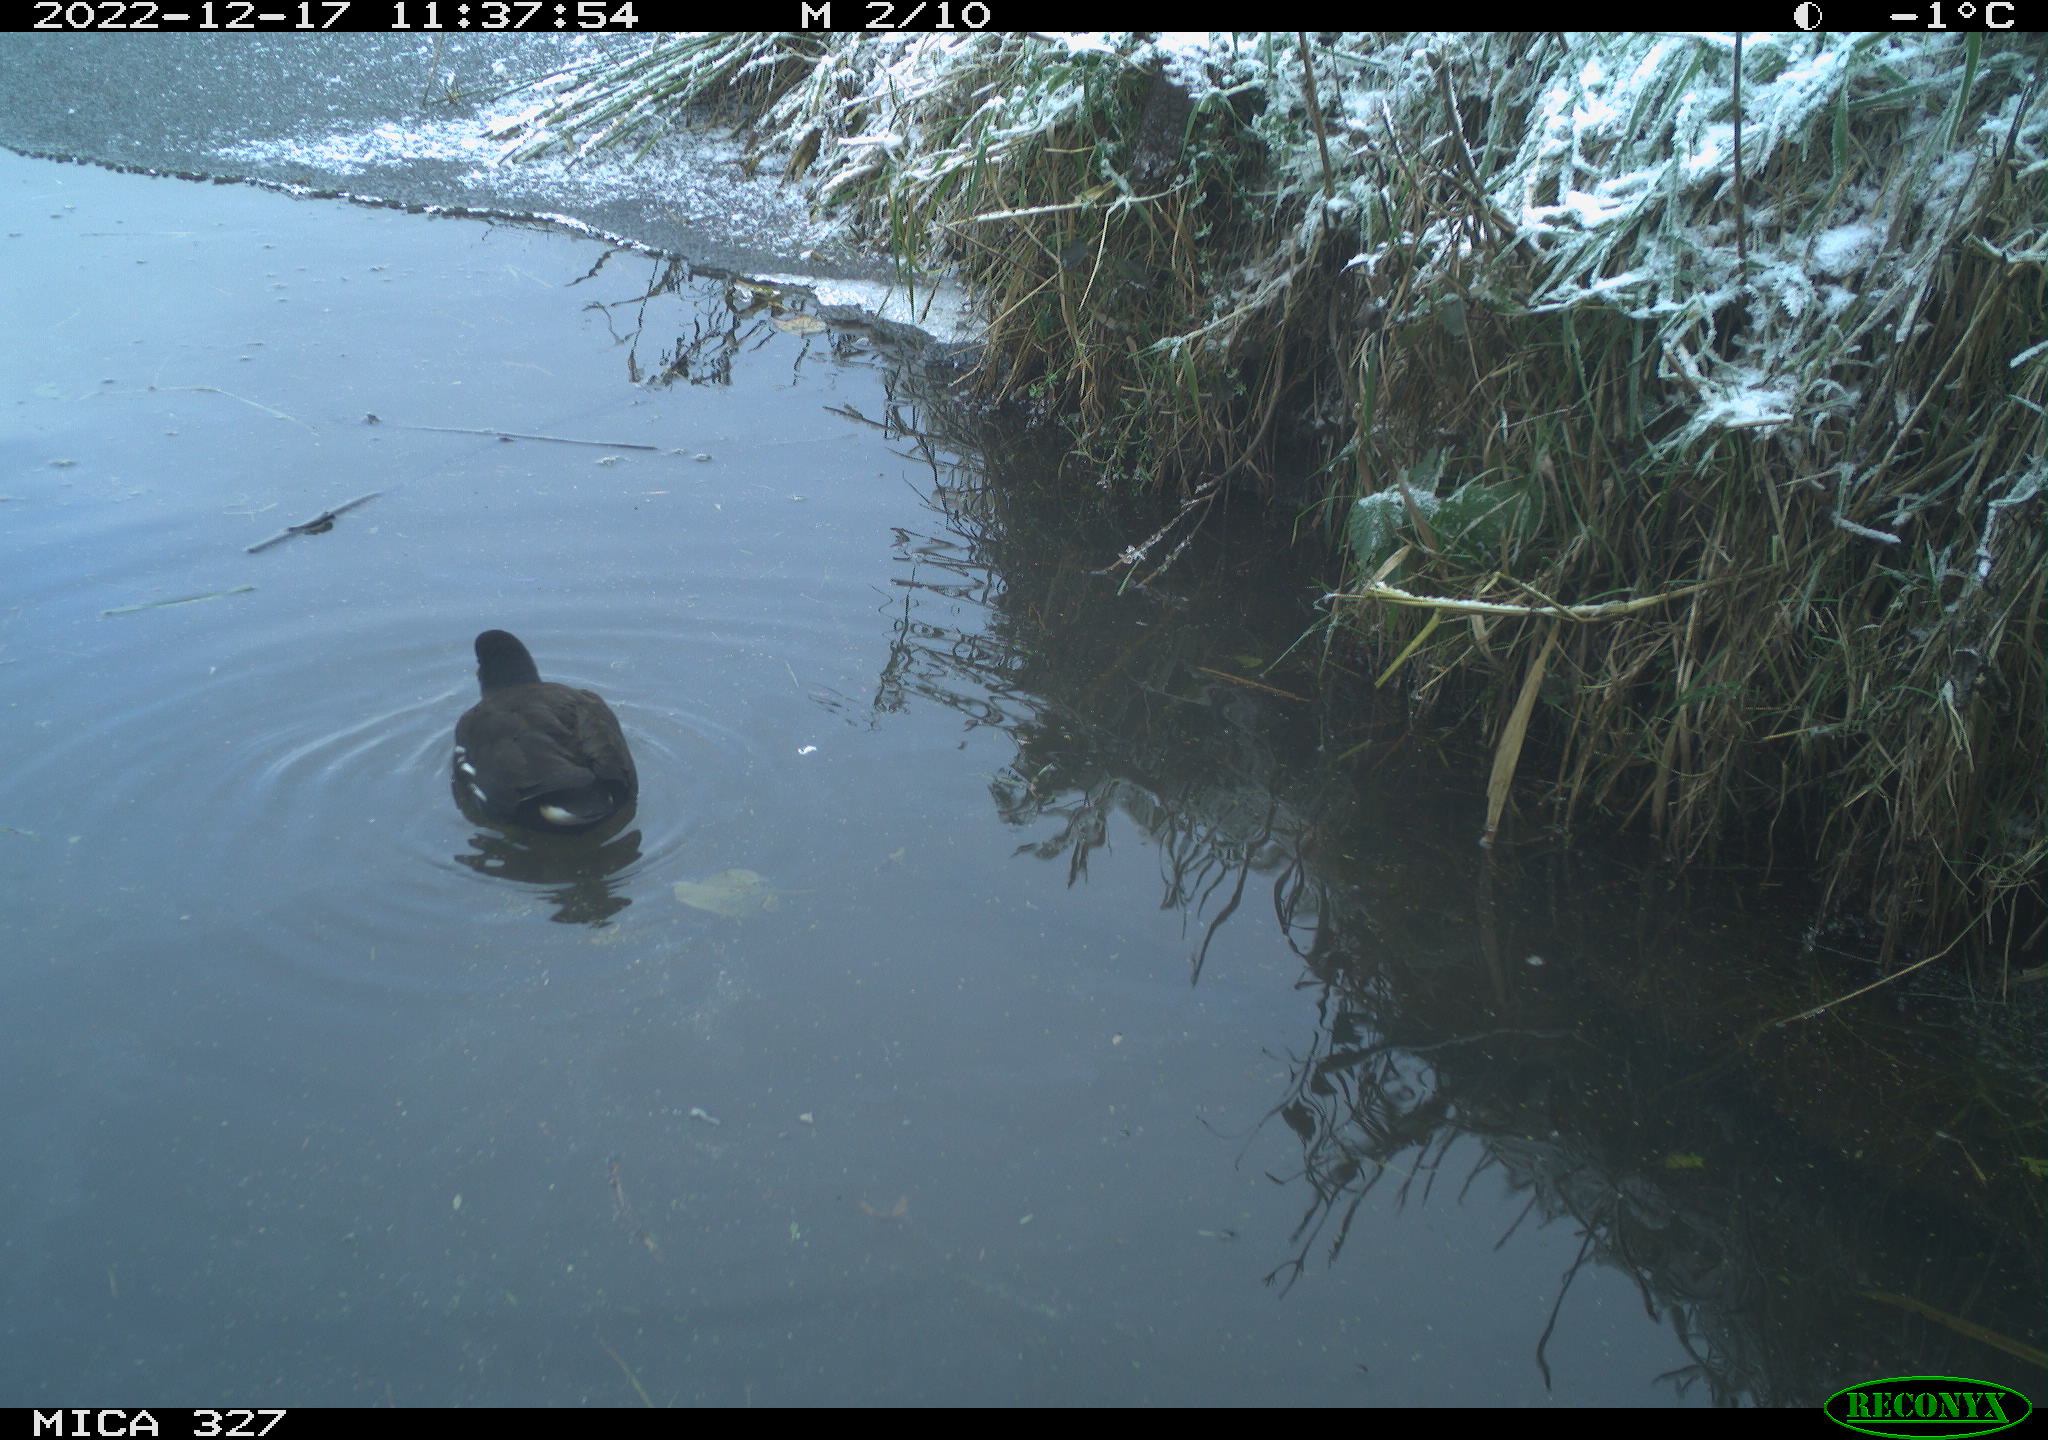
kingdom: Animalia
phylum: Chordata
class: Aves
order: Gruiformes
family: Rallidae
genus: Gallinula
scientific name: Gallinula chloropus
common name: Common moorhen
